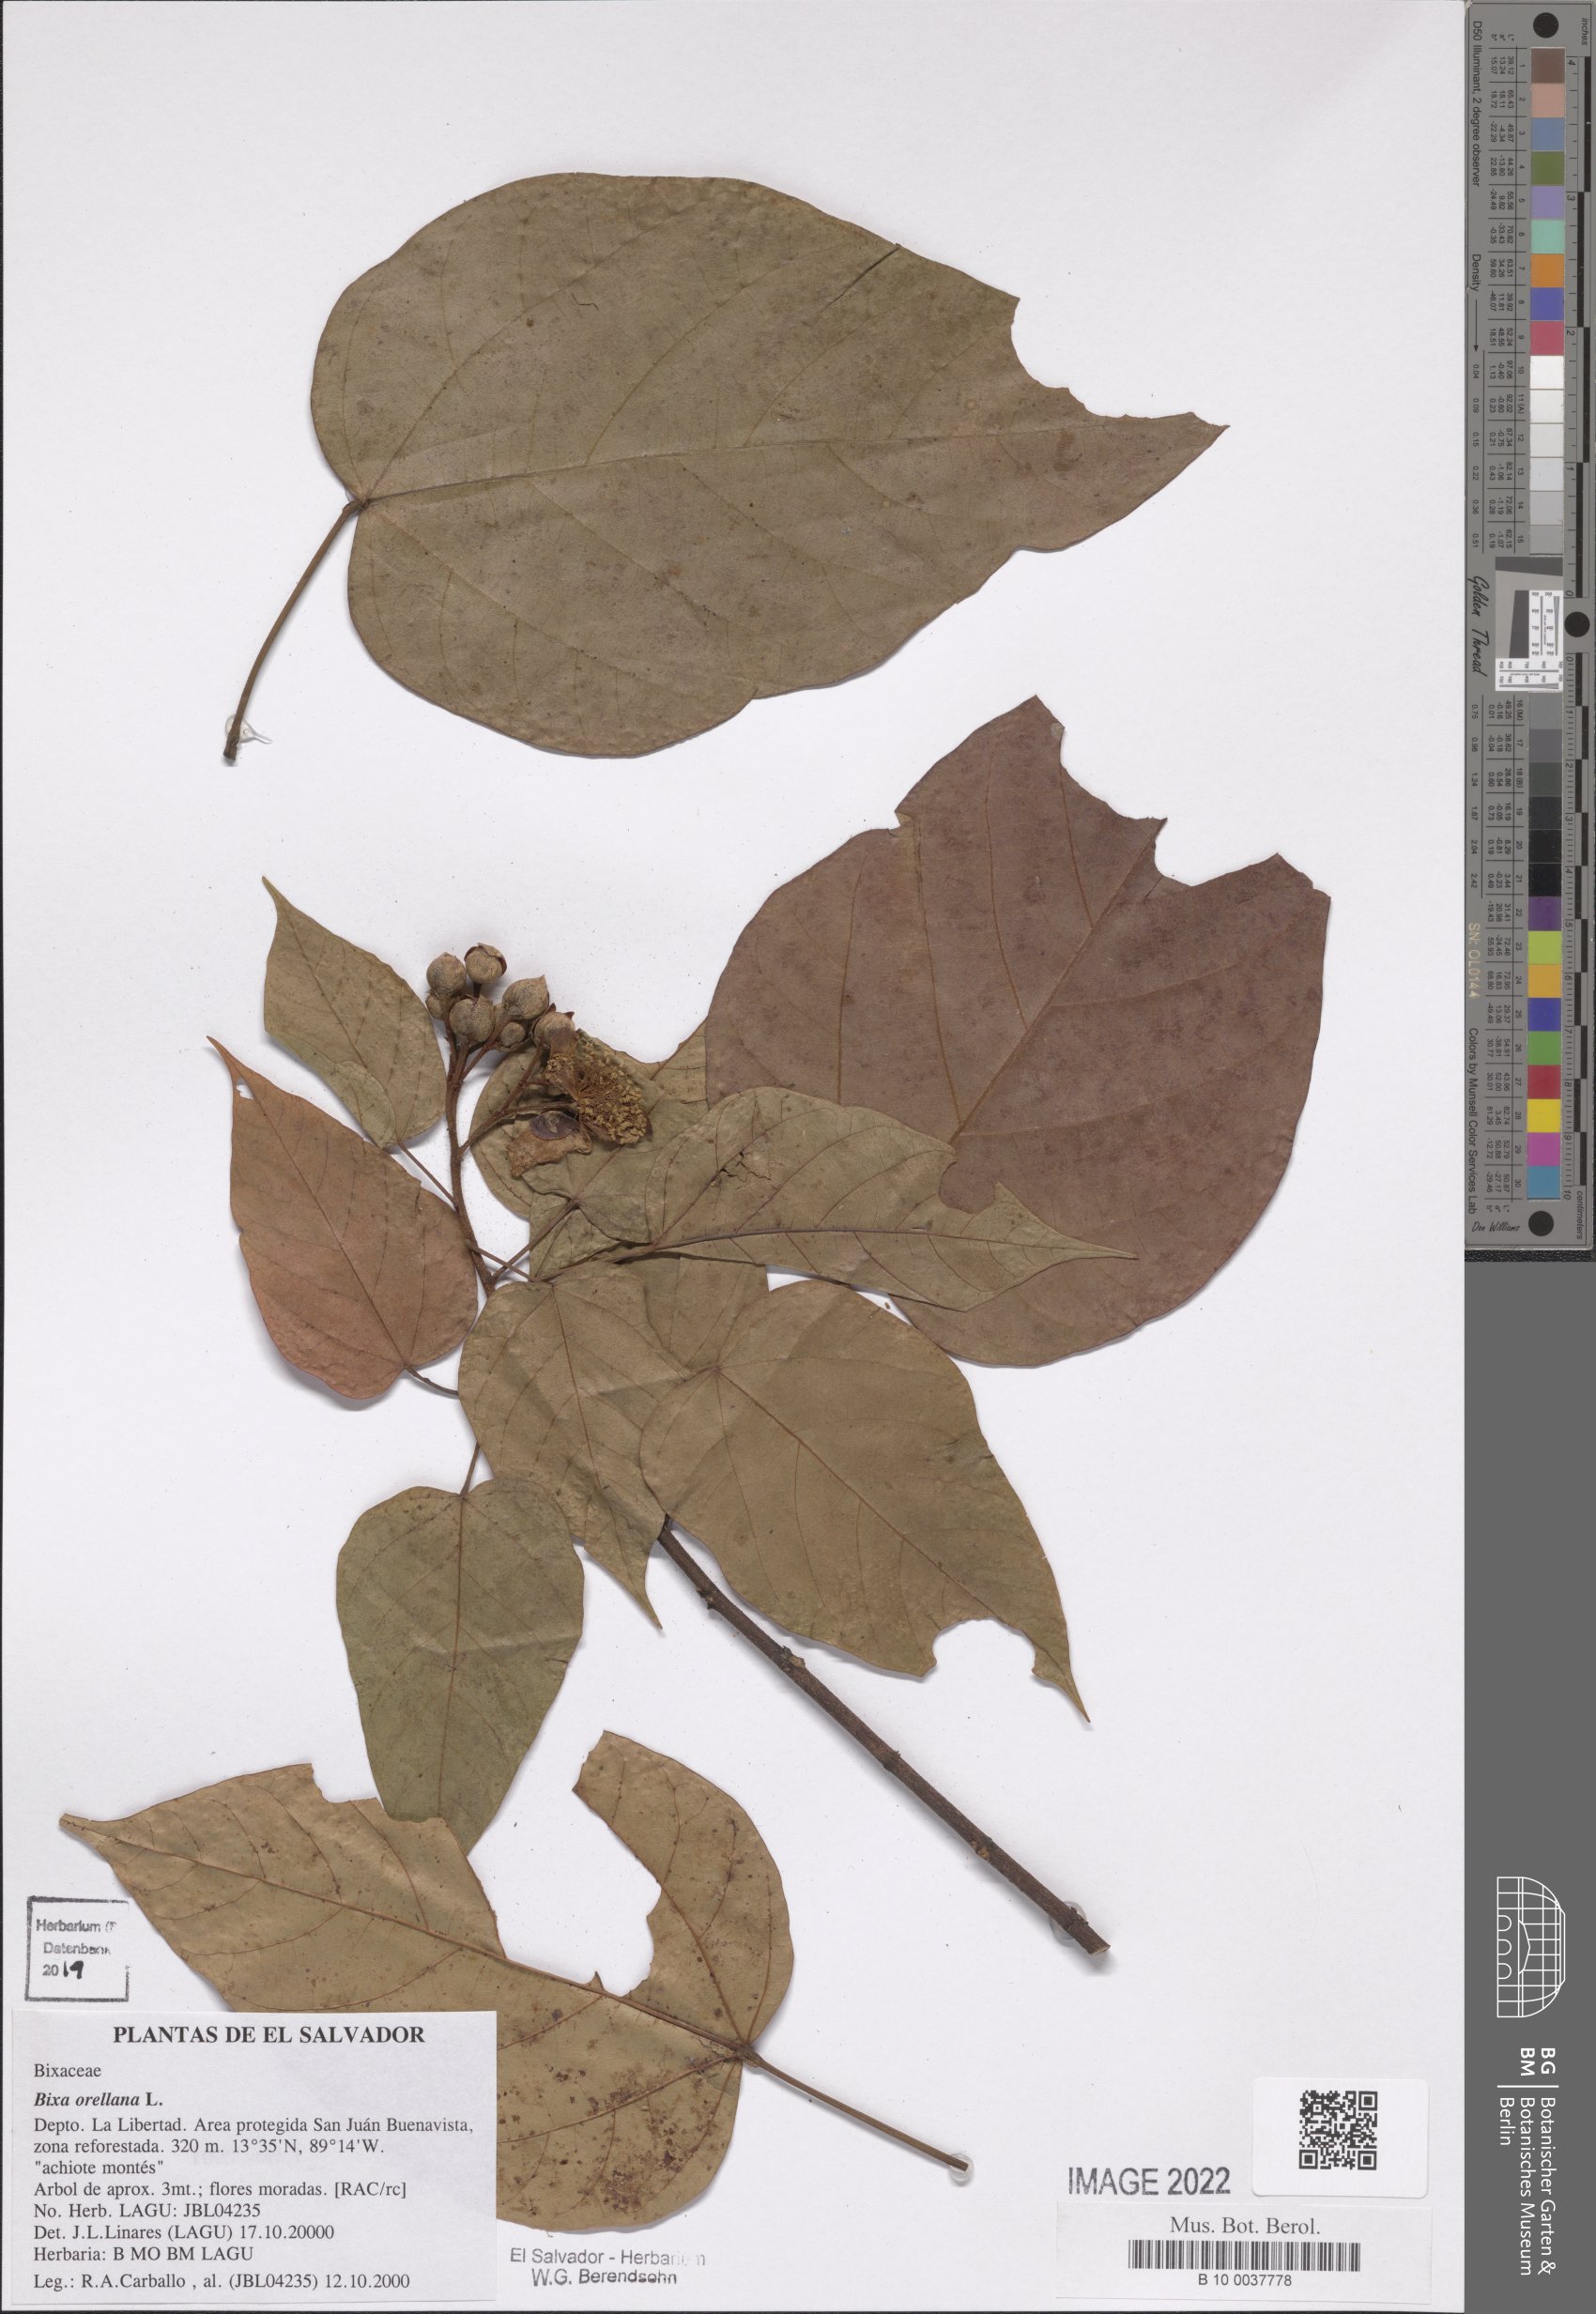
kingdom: Plantae
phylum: Tracheophyta
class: Magnoliopsida
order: Malvales
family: Bixaceae
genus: Bixa
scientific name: Bixa orellana
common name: Lipsticktree
